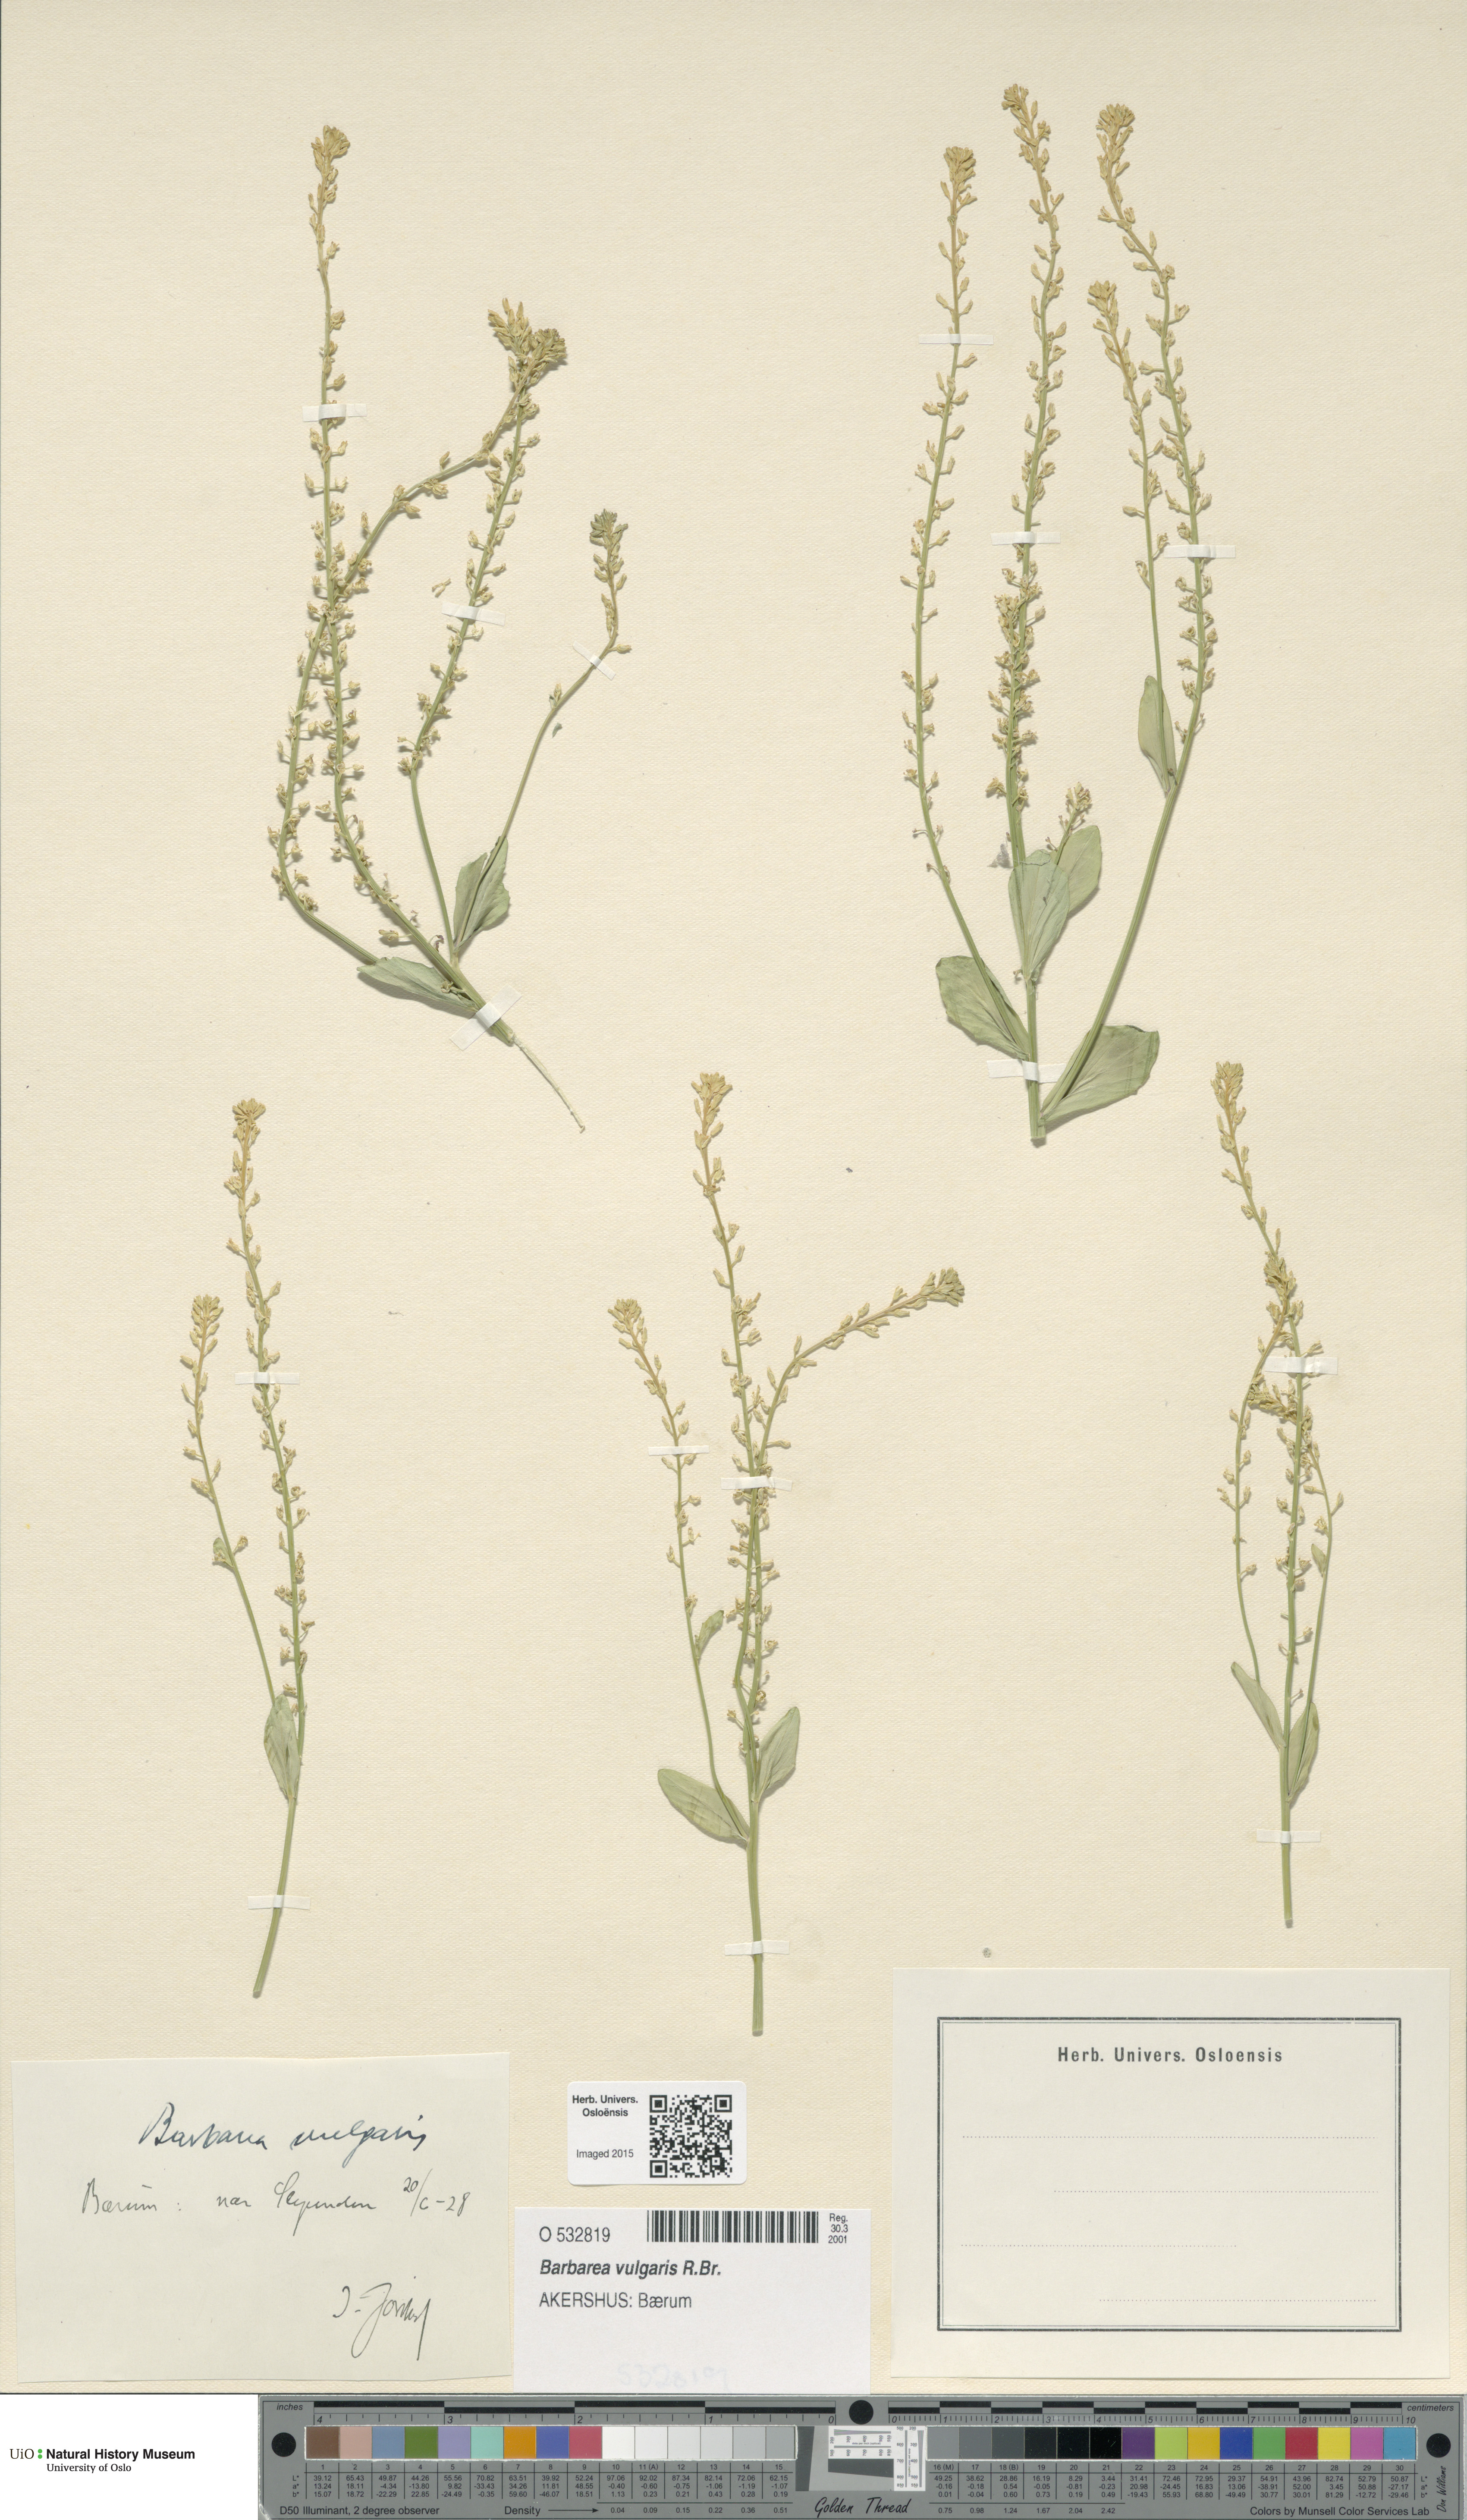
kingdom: Plantae
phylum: Tracheophyta
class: Magnoliopsida
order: Brassicales
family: Brassicaceae
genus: Barbarea
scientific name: Barbarea vulgaris
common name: Cressy-greens
